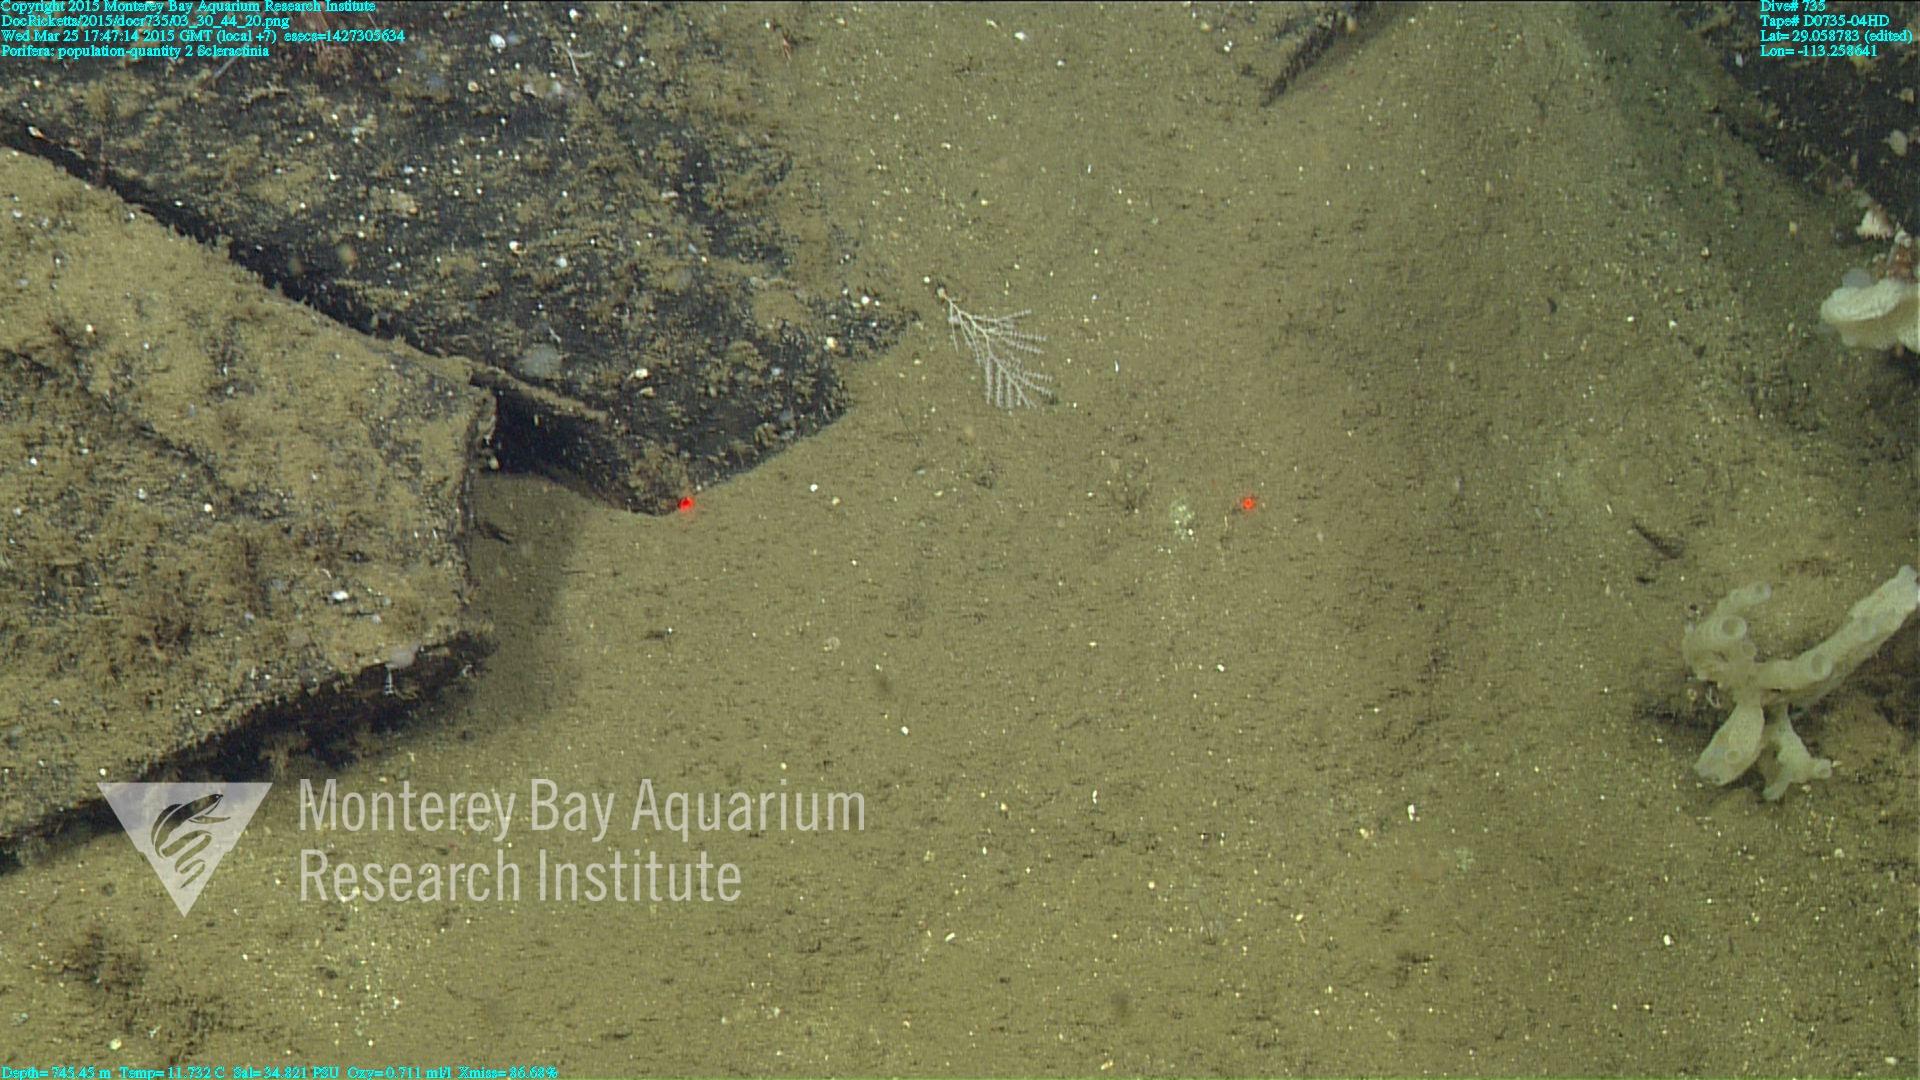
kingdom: Animalia
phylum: Cnidaria
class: Anthozoa
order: Scleractinia
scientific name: Scleractinia
